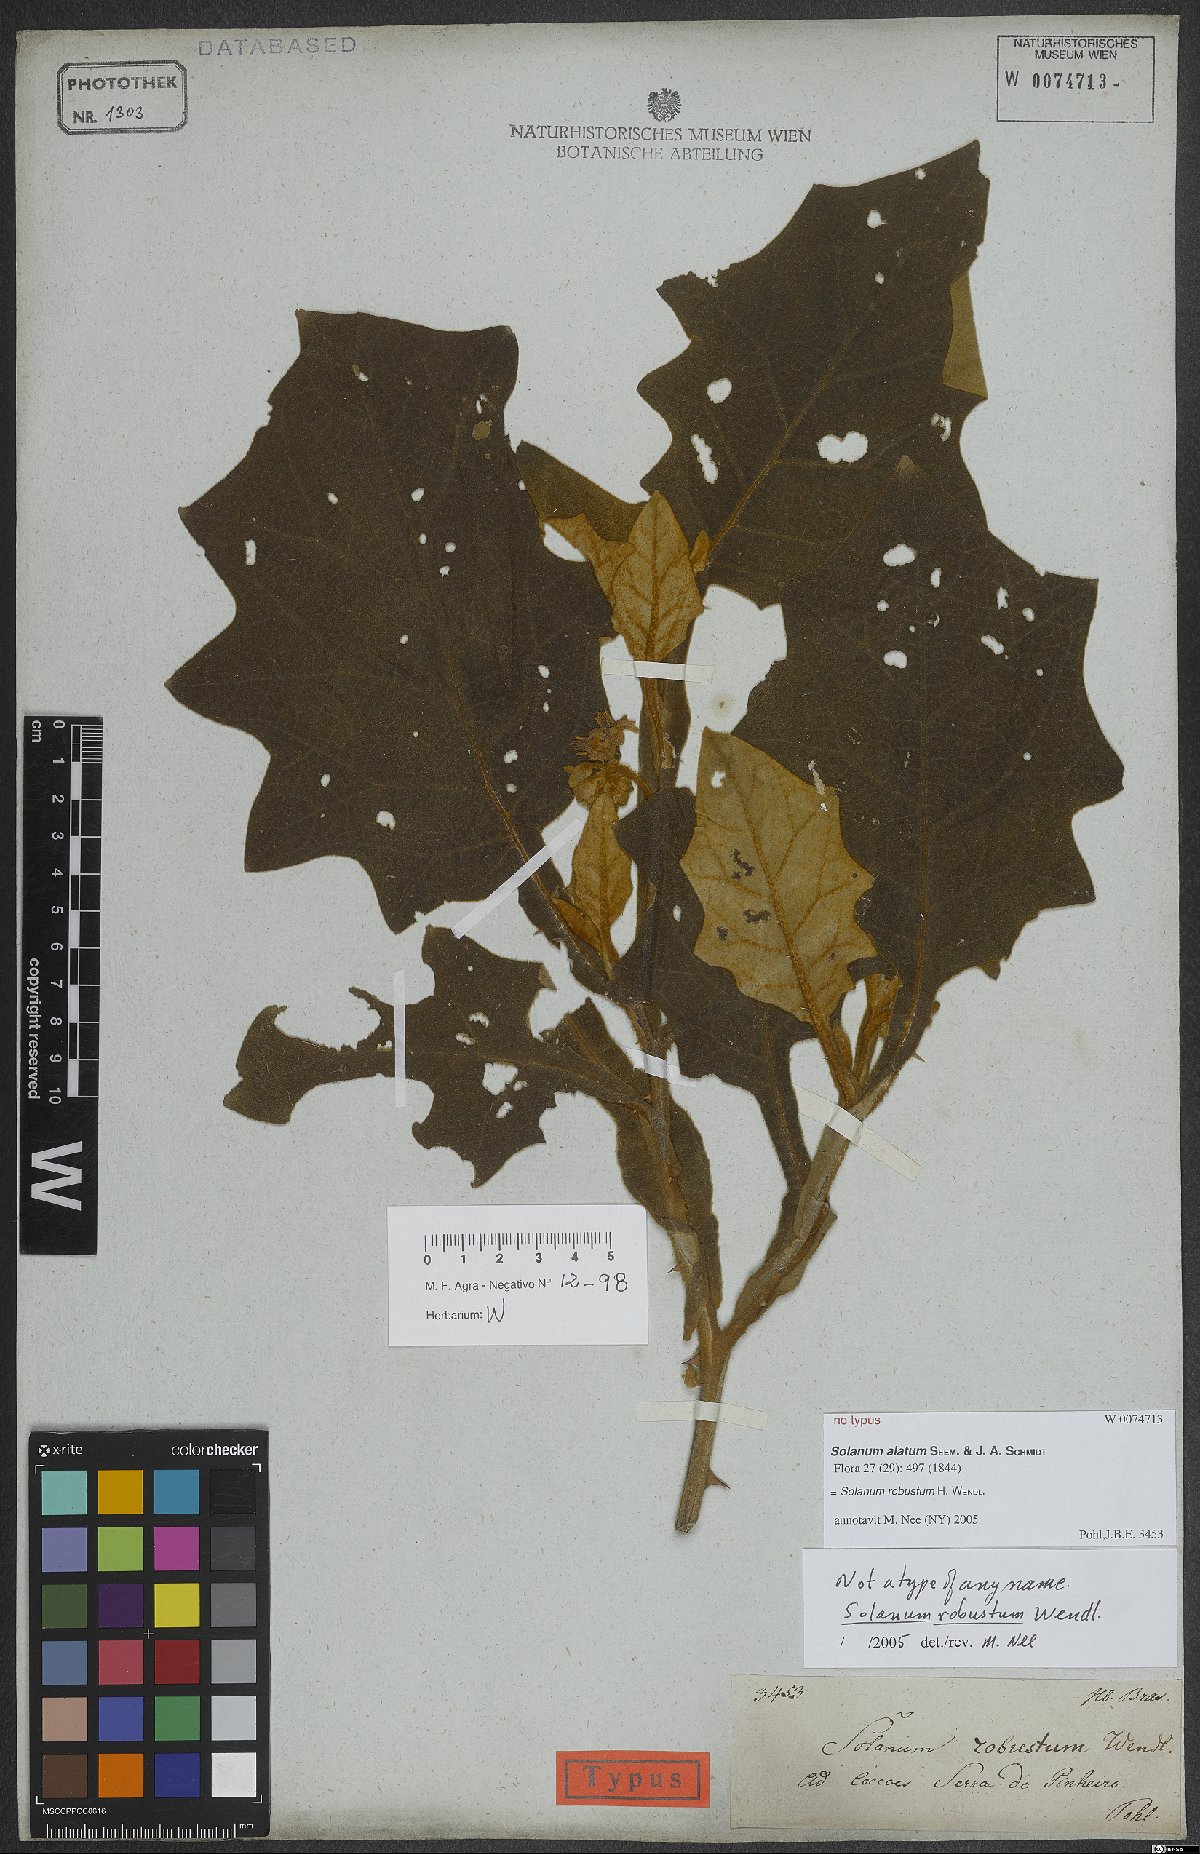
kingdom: Plantae
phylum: Tracheophyta
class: Magnoliopsida
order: Solanales
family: Solanaceae
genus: Solanum
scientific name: Solanum robustum
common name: Shrubby nightshade
